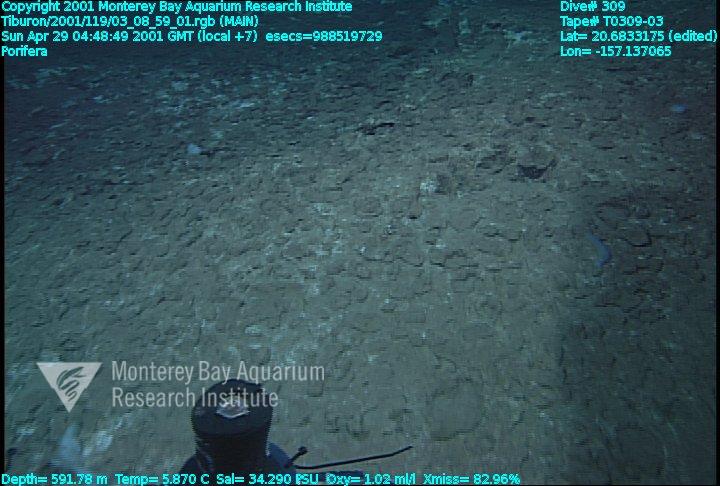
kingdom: Animalia
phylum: Porifera
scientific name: Porifera
